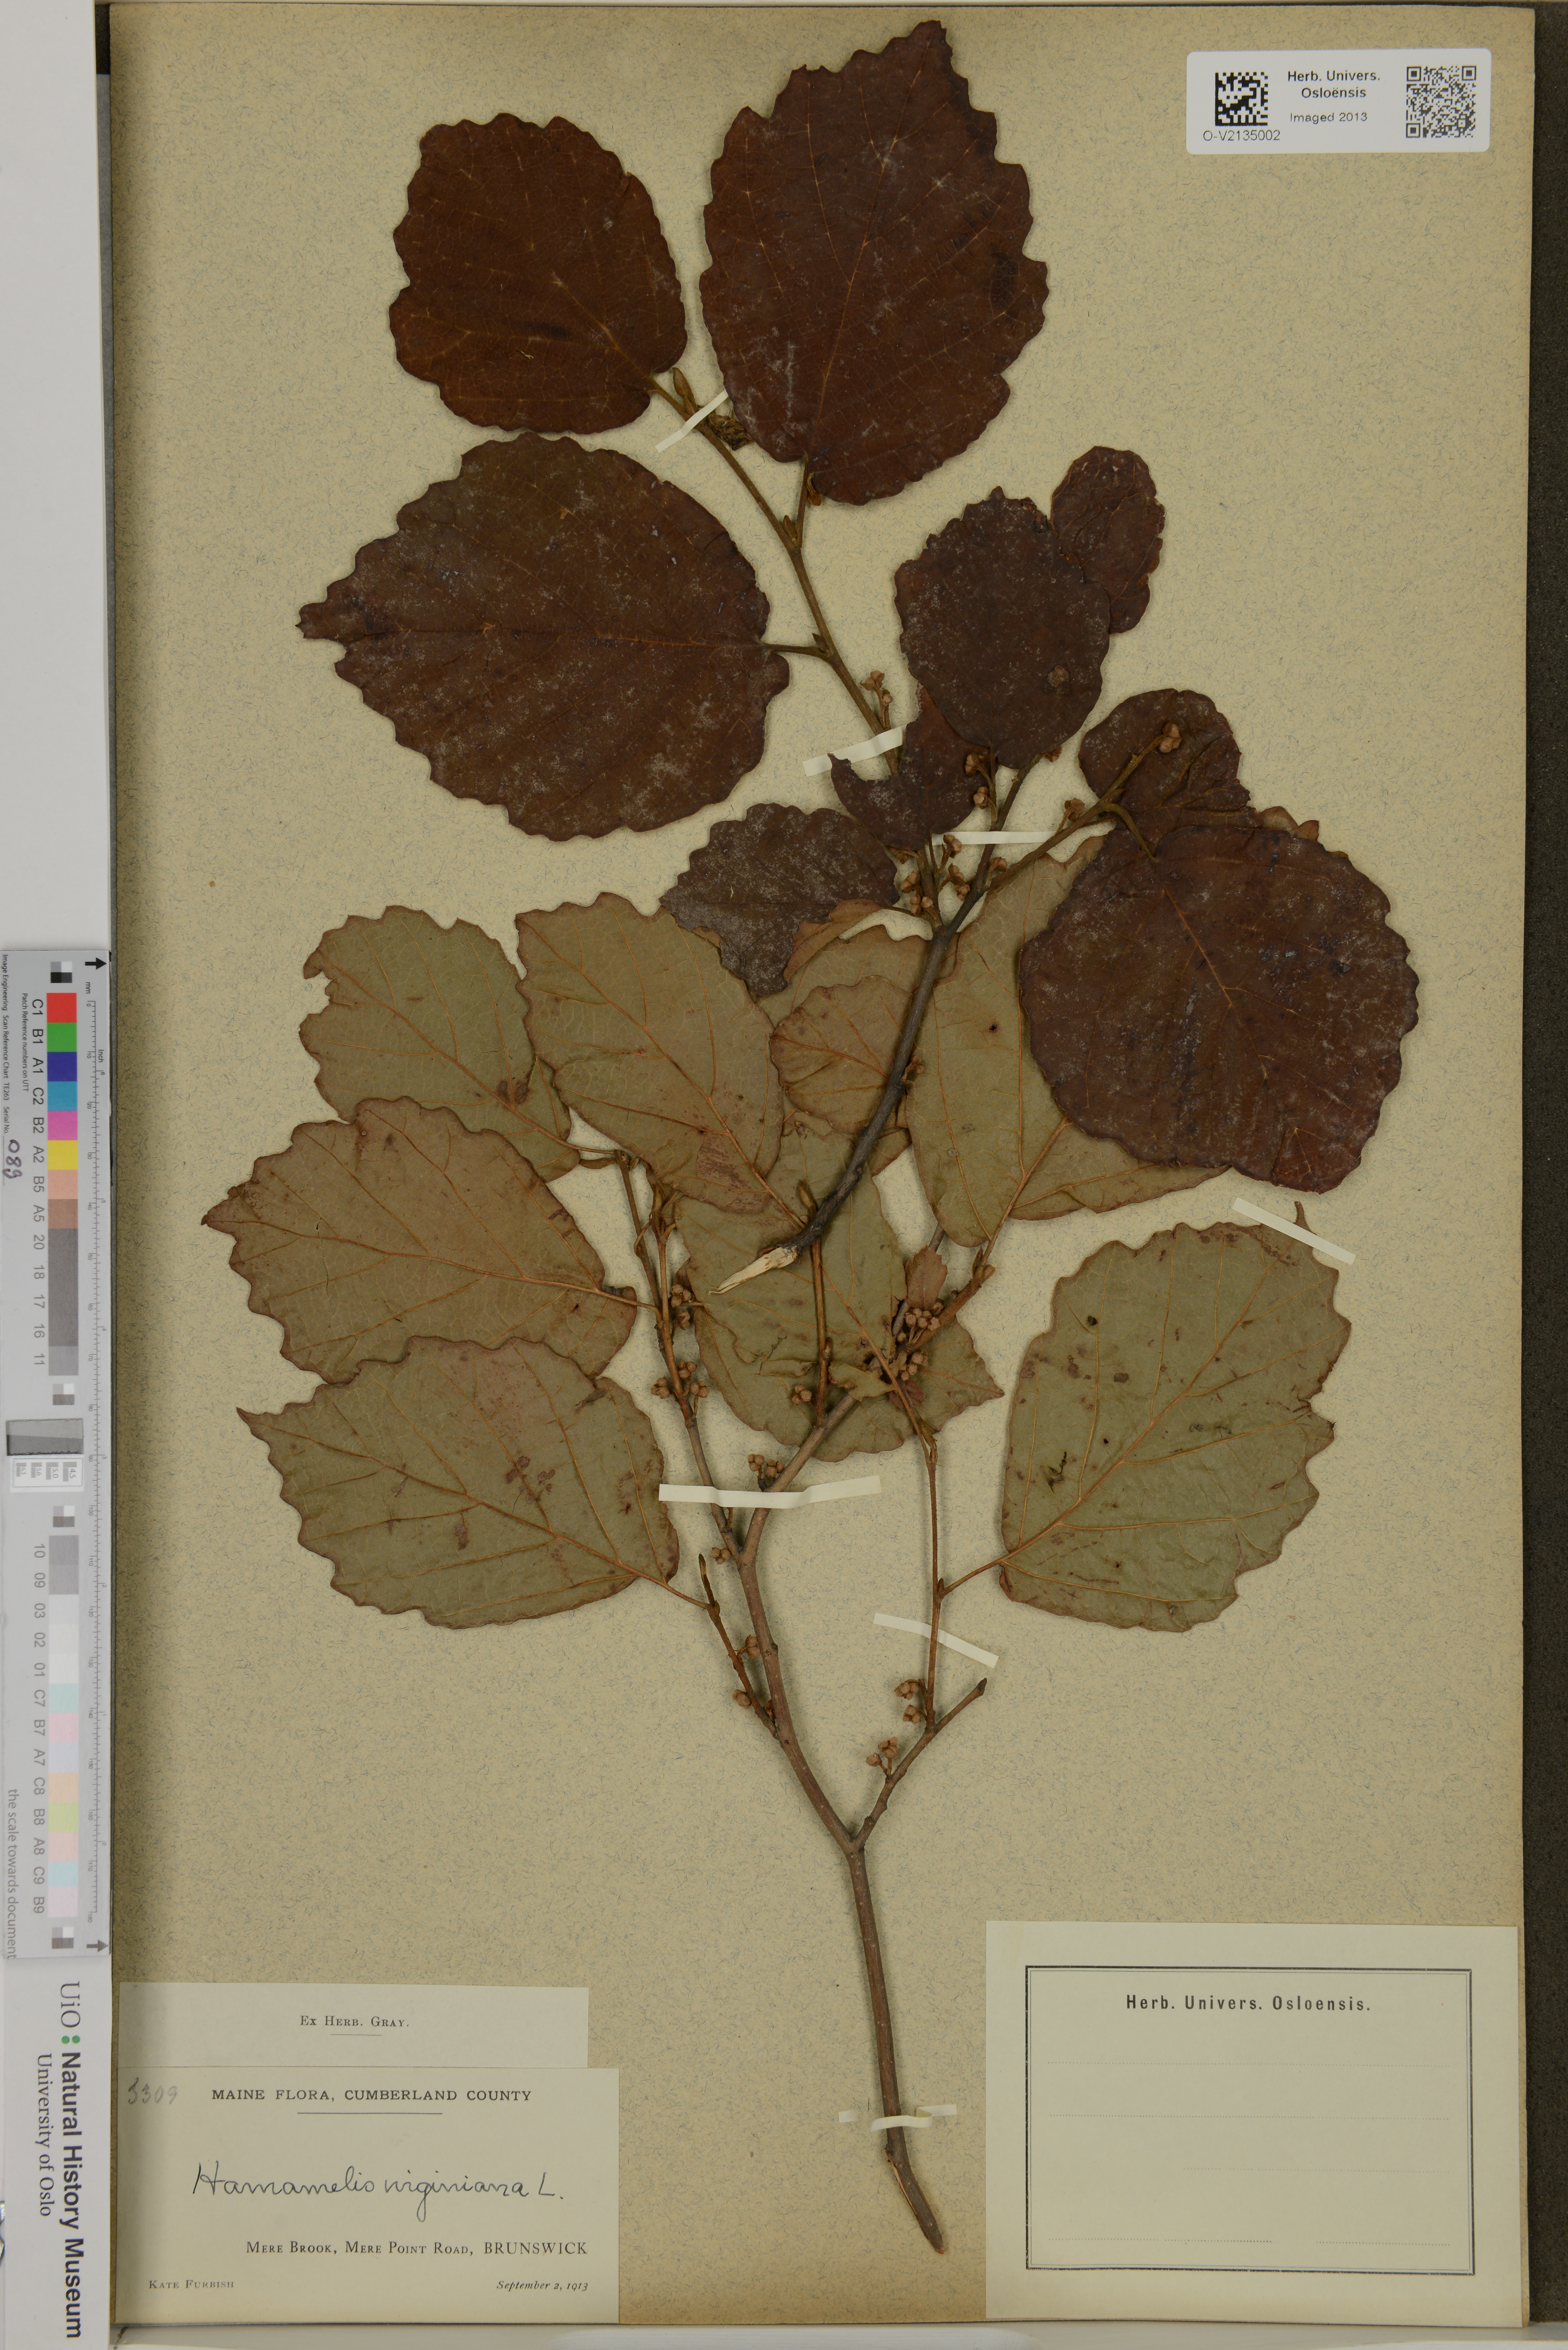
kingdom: Plantae
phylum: Tracheophyta
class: Magnoliopsida
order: Saxifragales
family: Hamamelidaceae
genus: Hamamelis
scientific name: Hamamelis virginiana
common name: Witch-hazel
